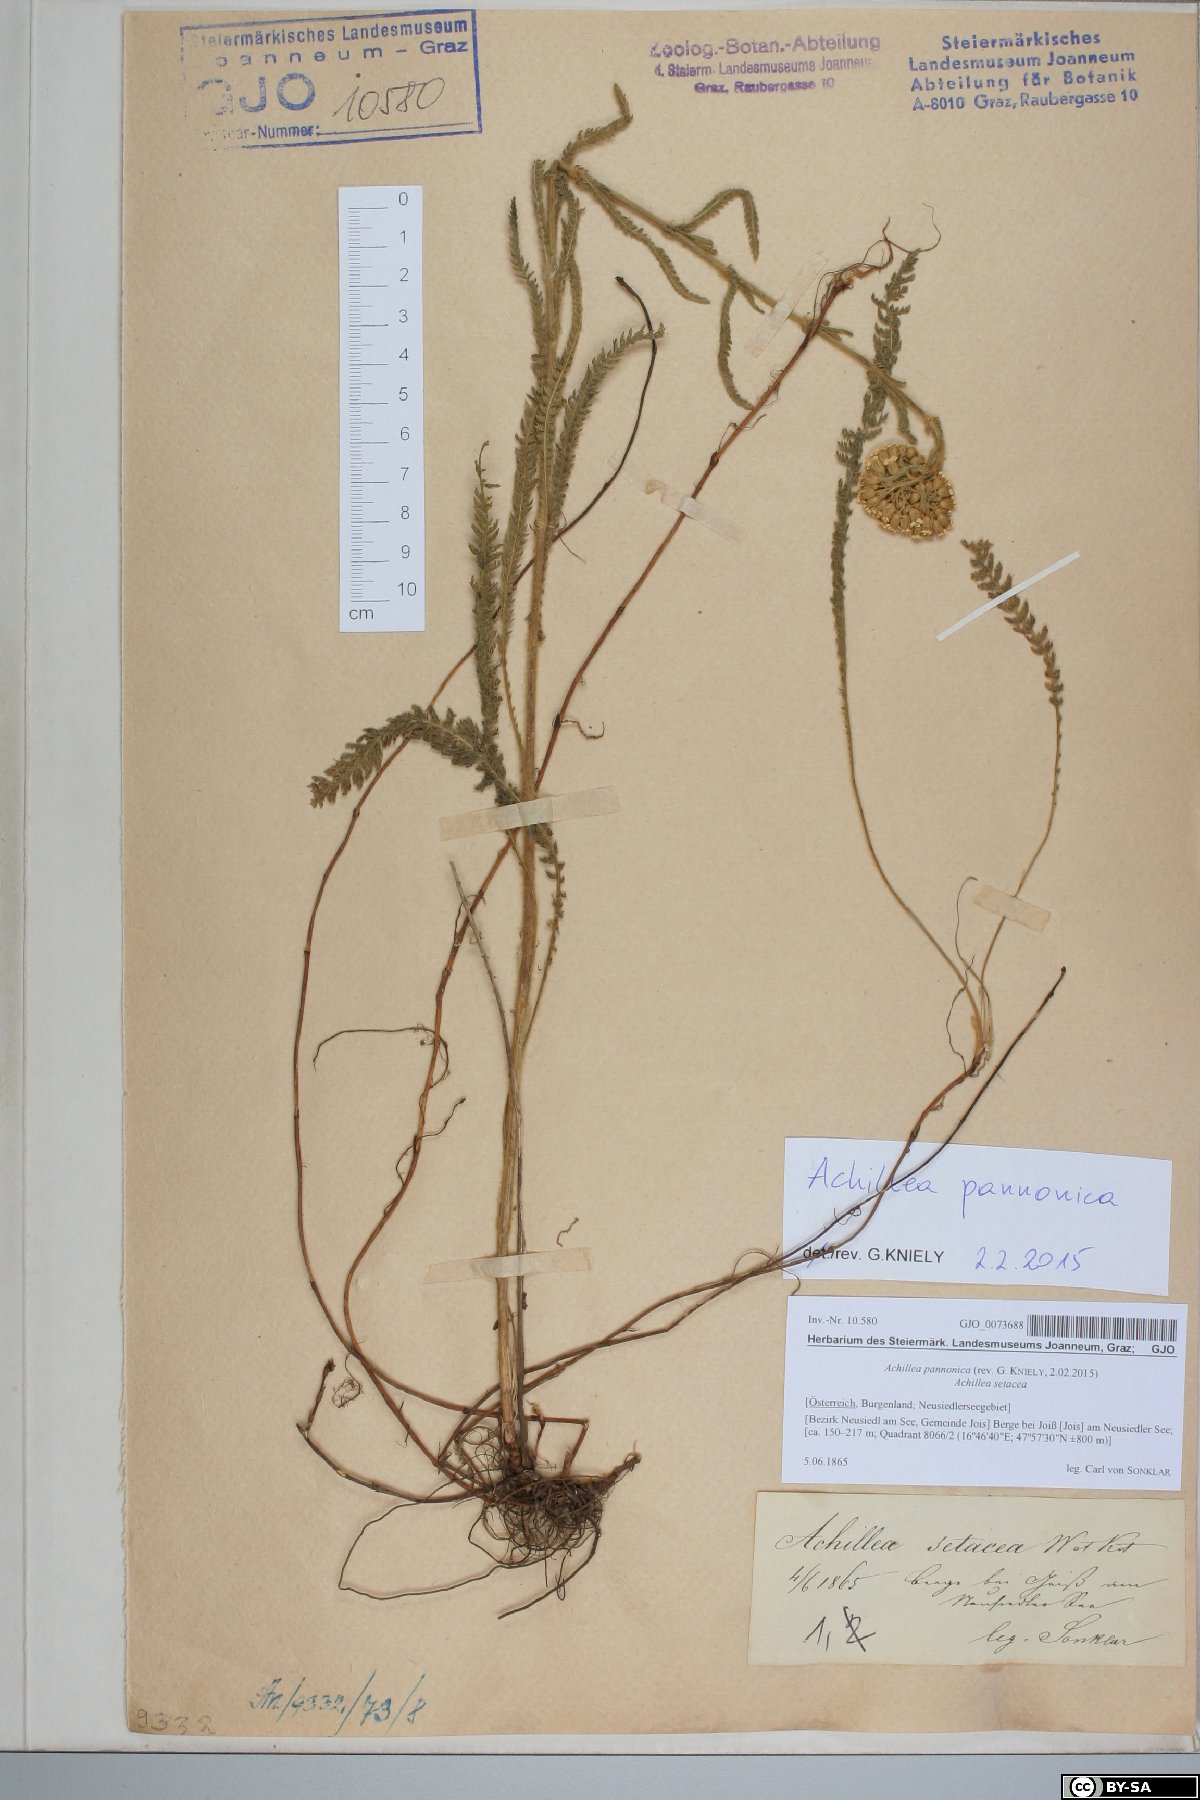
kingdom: Plantae
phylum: Tracheophyta
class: Magnoliopsida
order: Asterales
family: Asteraceae
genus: Achillea
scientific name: Achillea pannonica
